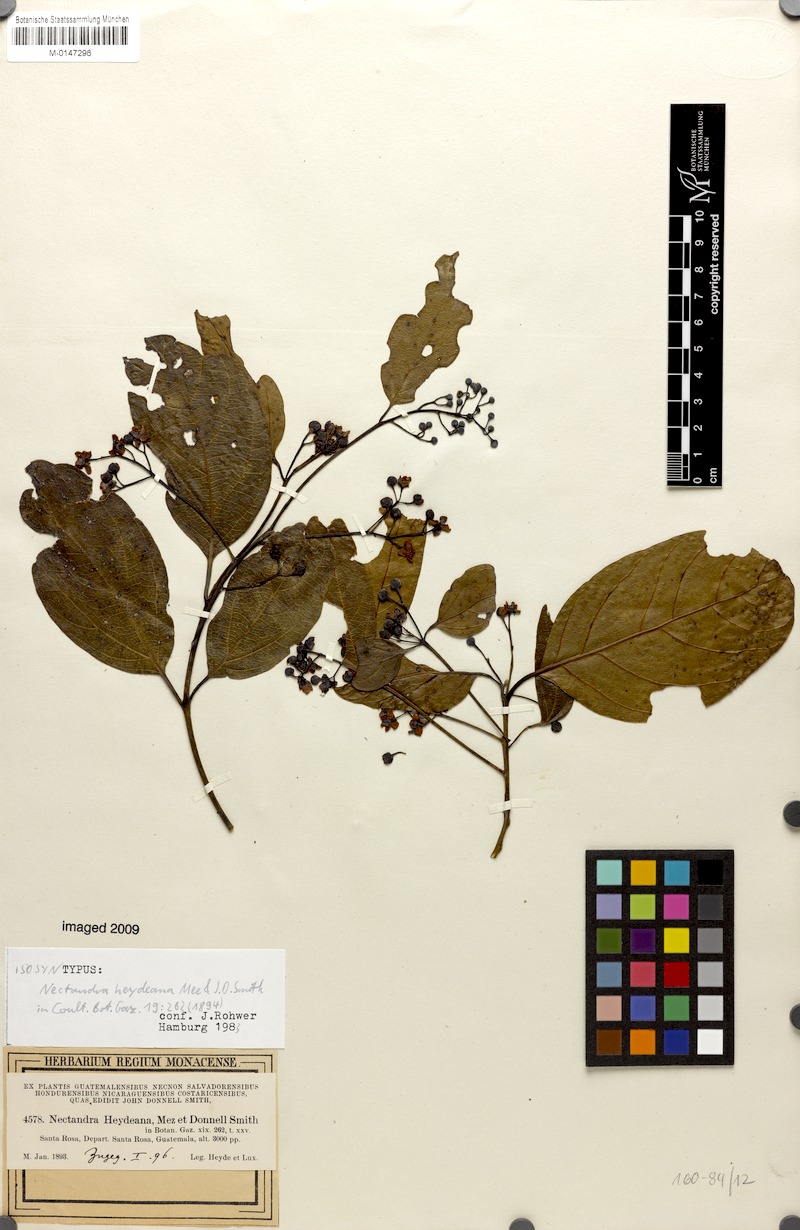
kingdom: Plantae
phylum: Tracheophyta
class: Magnoliopsida
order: Laurales
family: Lauraceae
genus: Ocotea
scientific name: Ocotea heydeana
